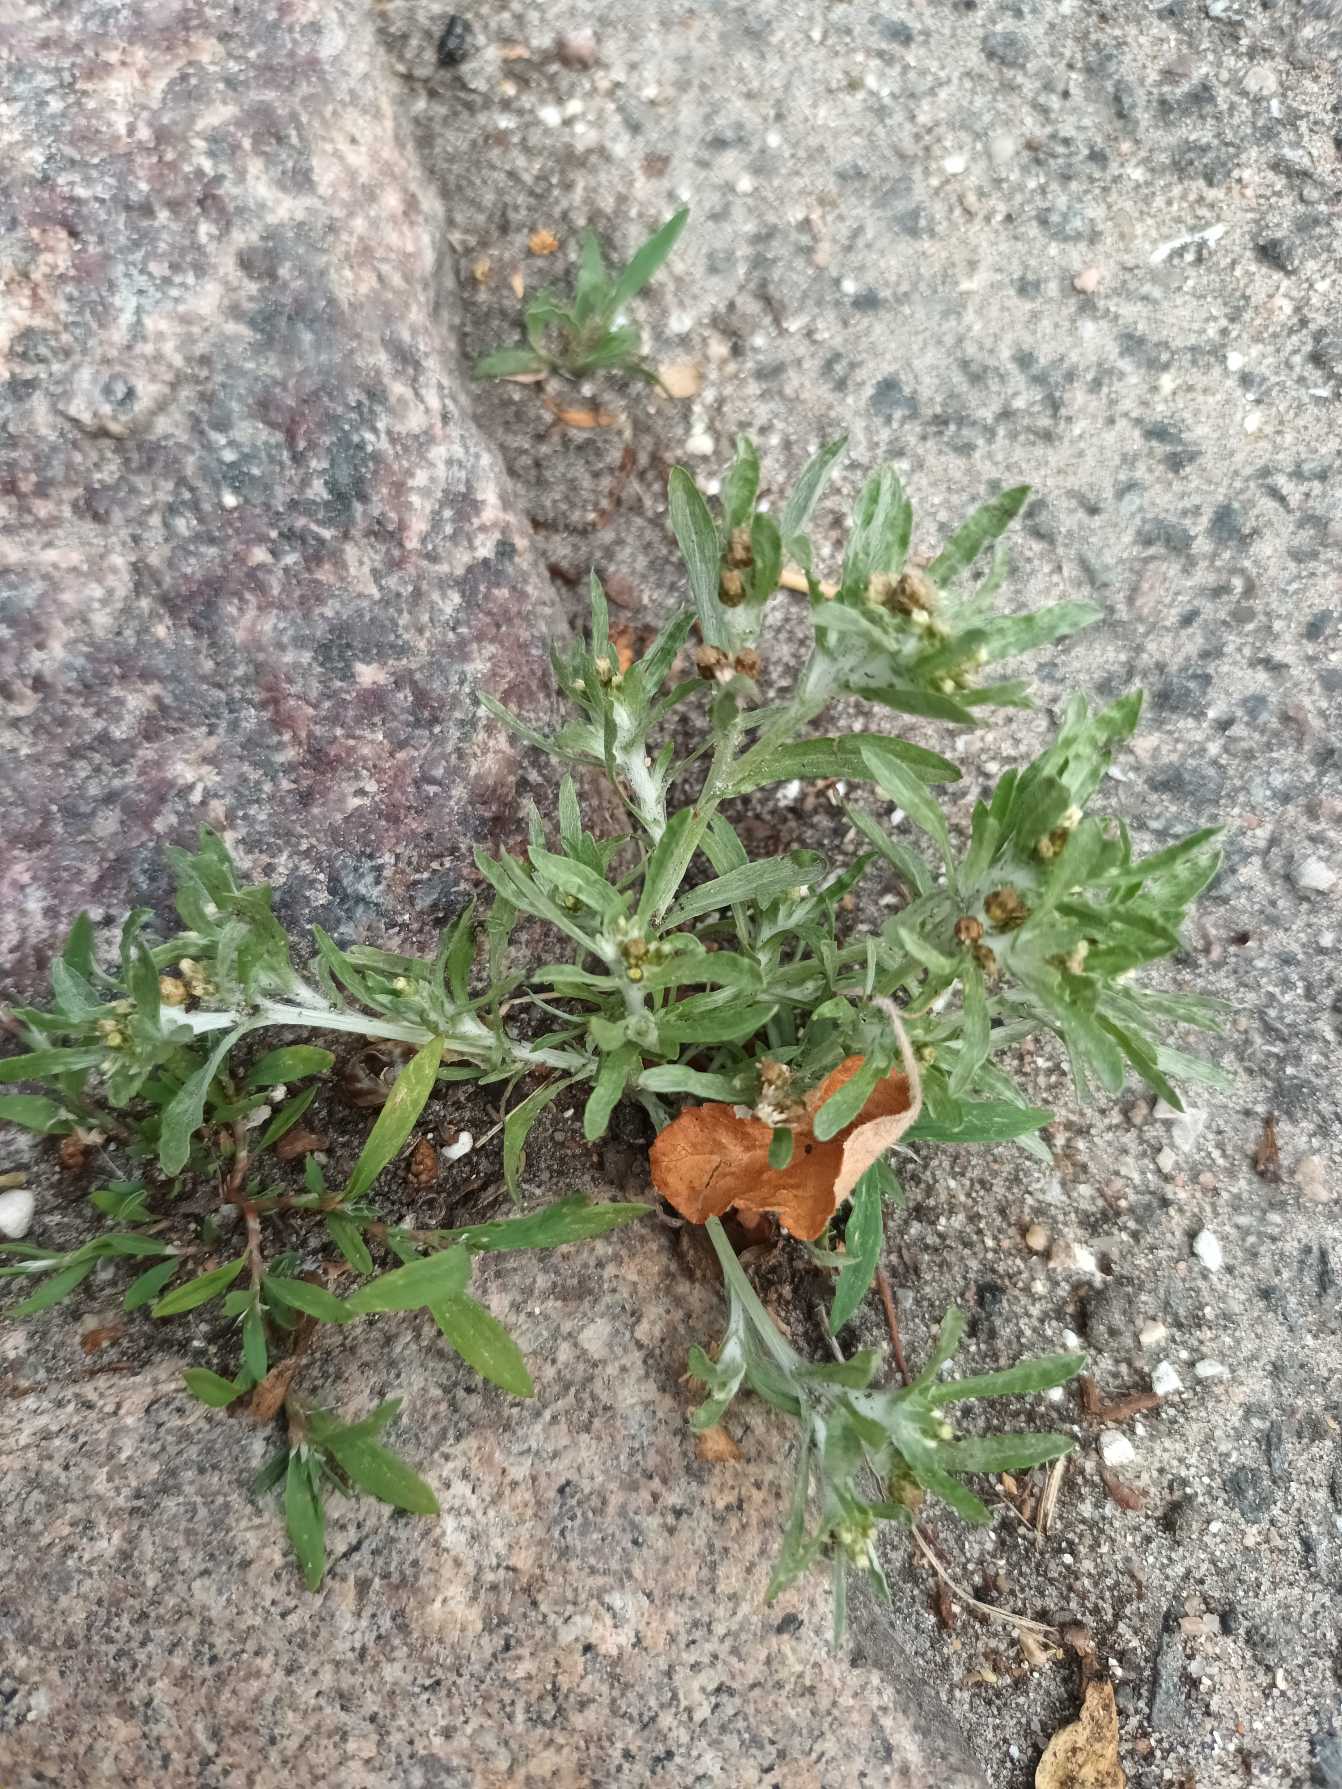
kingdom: Plantae
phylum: Tracheophyta
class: Magnoliopsida
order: Asterales
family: Asteraceae
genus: Gnaphalium
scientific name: Gnaphalium uliginosum
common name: Sump-evighedsblomst
